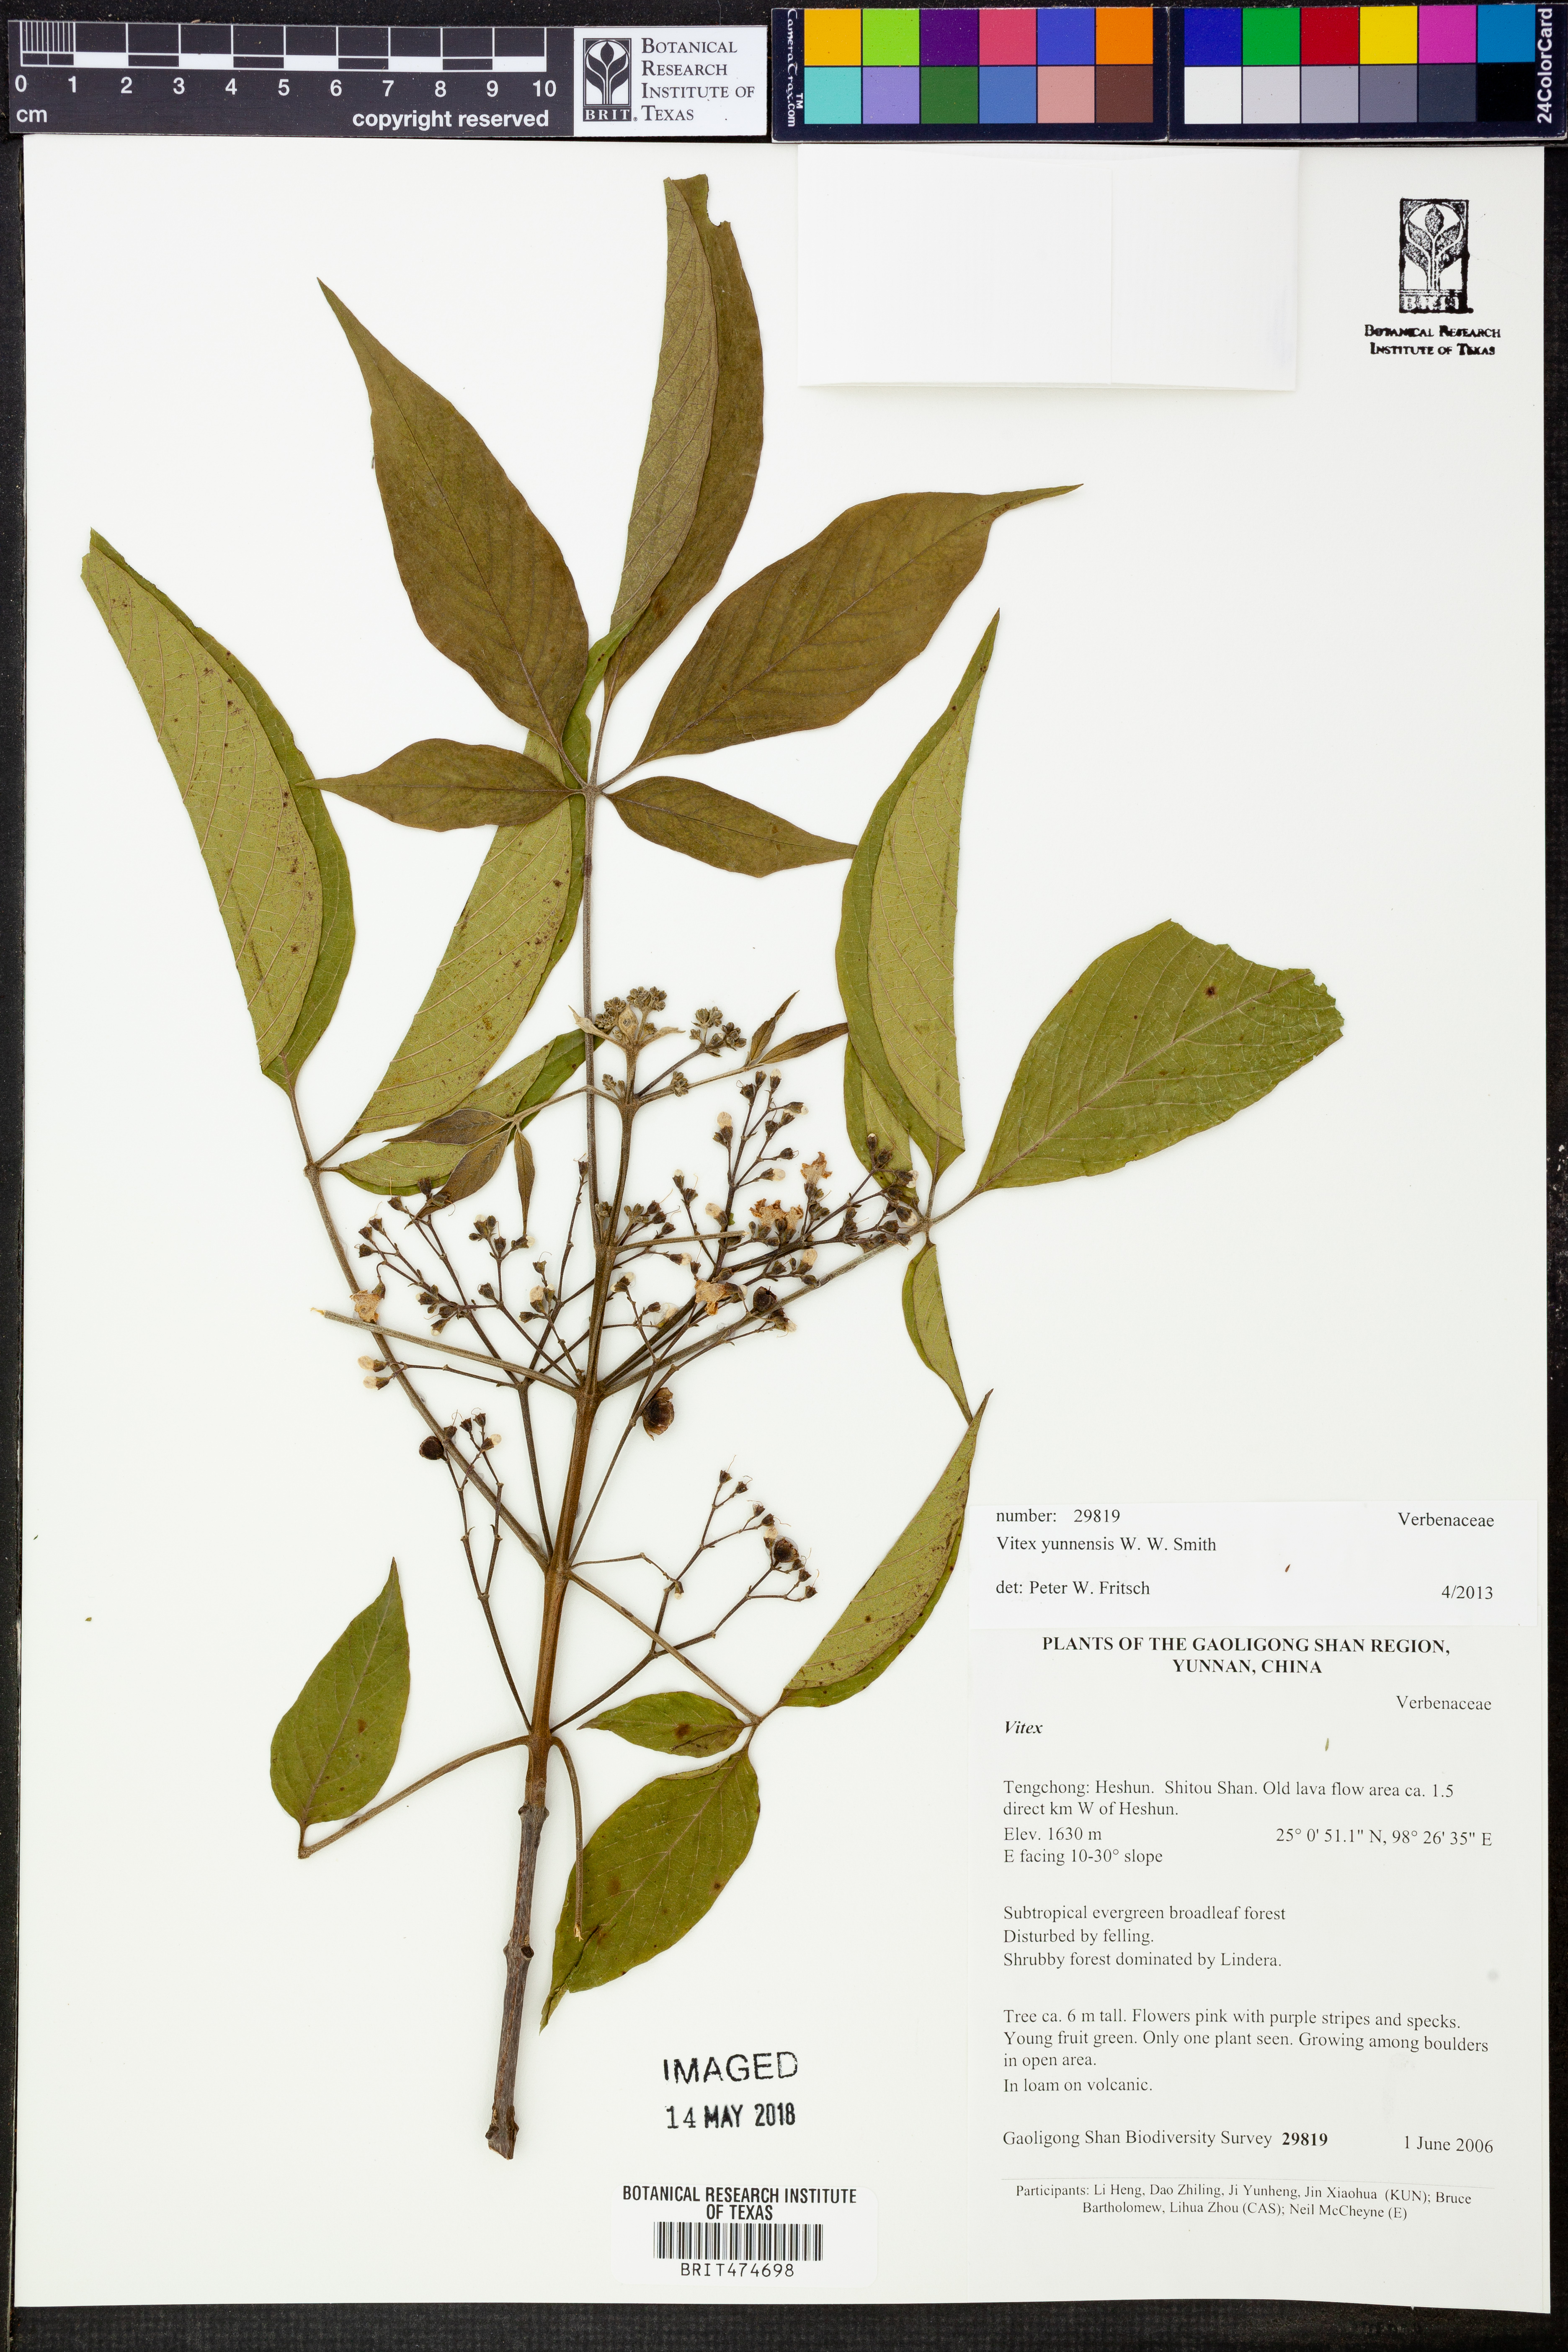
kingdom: Plantae
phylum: Tracheophyta
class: Magnoliopsida
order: Lamiales
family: Lamiaceae
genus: Vitex
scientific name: Vitex yunnanensis
